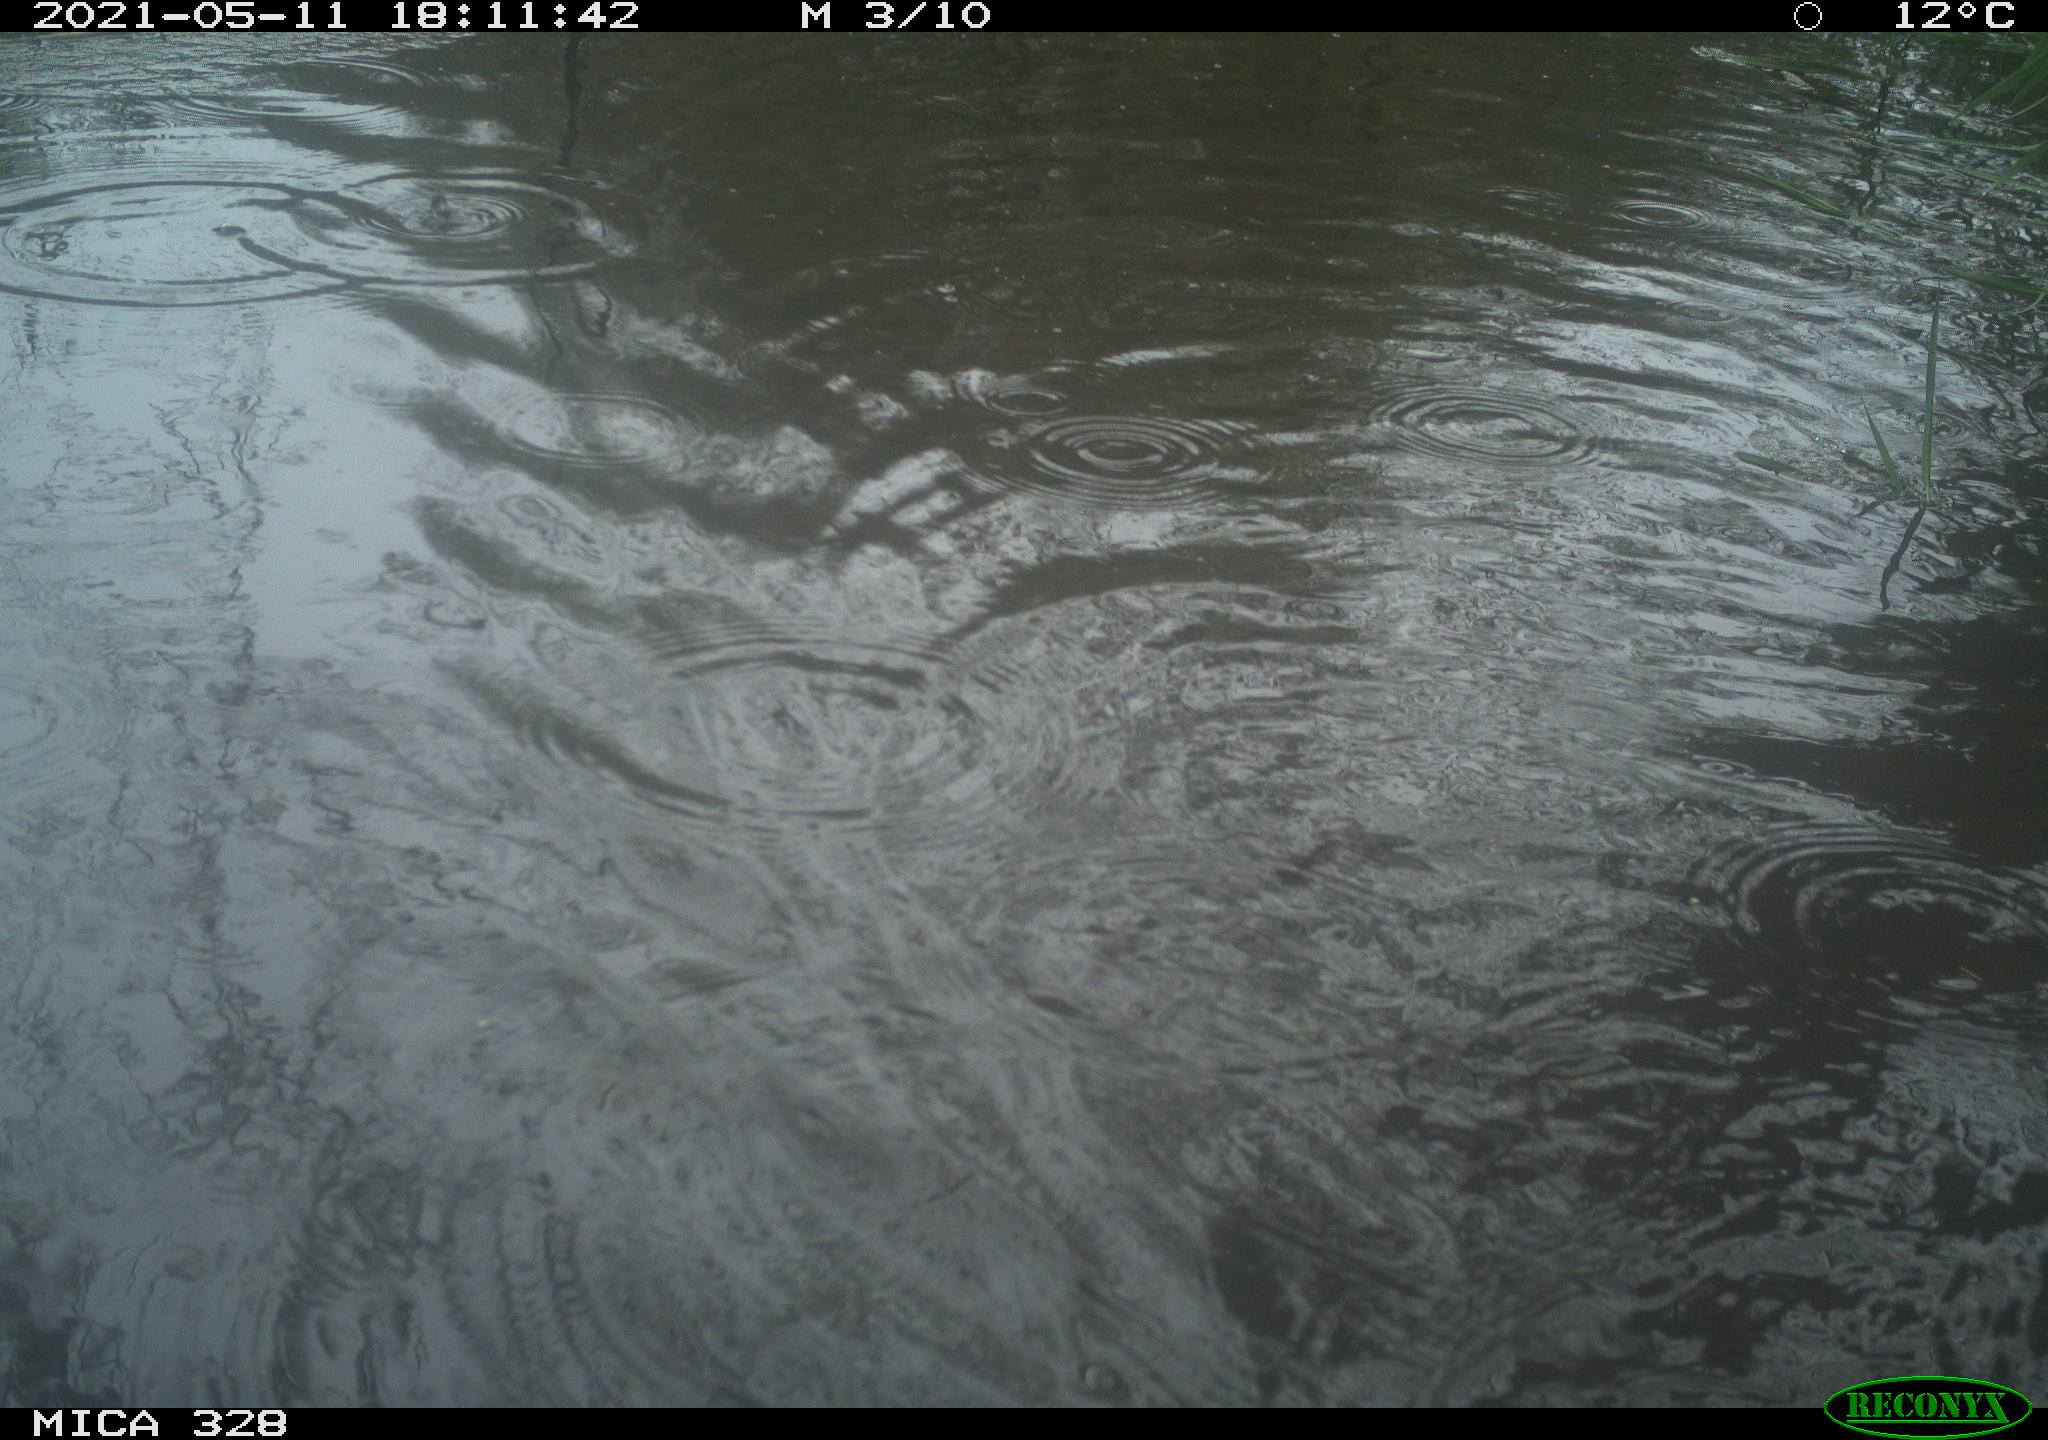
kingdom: Animalia
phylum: Chordata
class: Mammalia
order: Rodentia
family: Cricetidae
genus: Ondatra
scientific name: Ondatra zibethicus
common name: Muskrat
